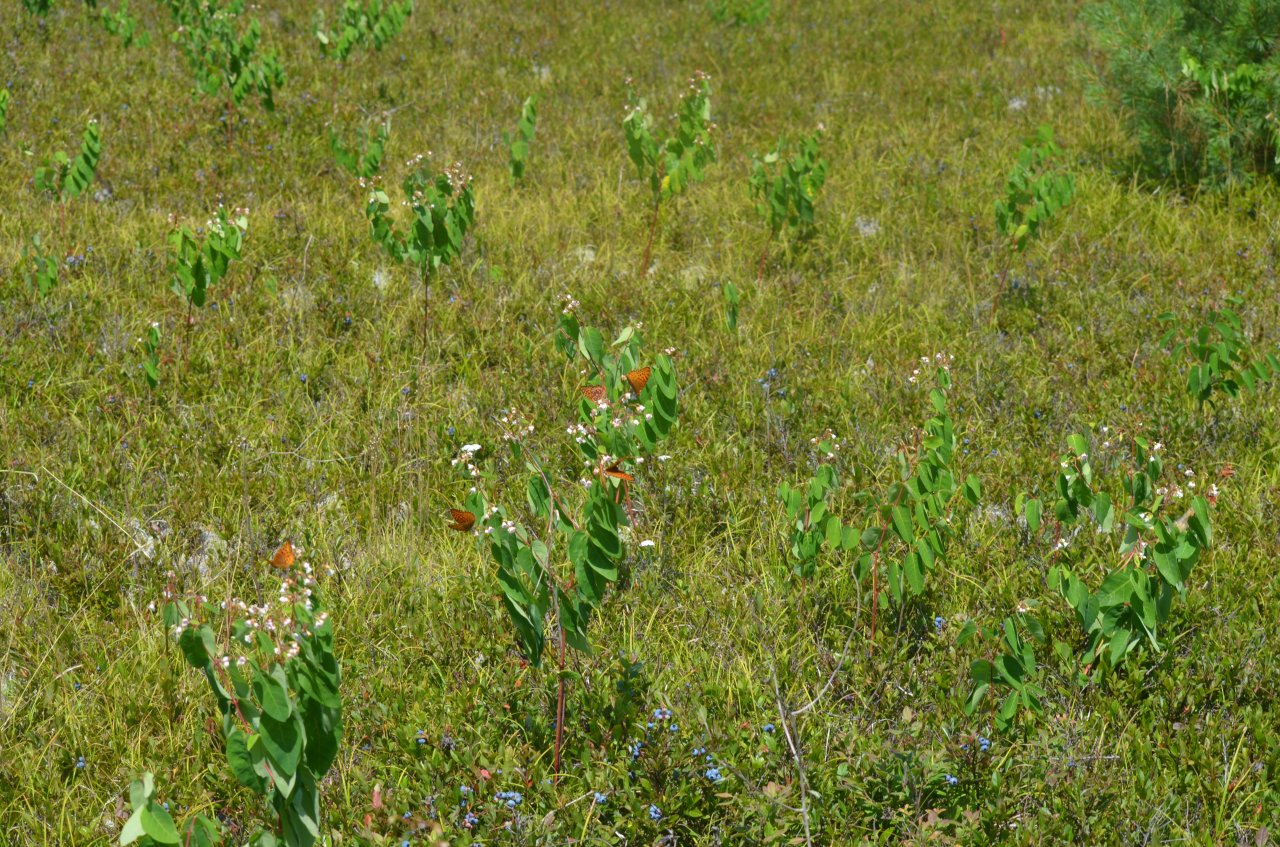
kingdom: Animalia
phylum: Arthropoda
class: Insecta
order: Lepidoptera
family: Nymphalidae
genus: Speyeria
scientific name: Speyeria aphrodite
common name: Aphrodite Fritillary
